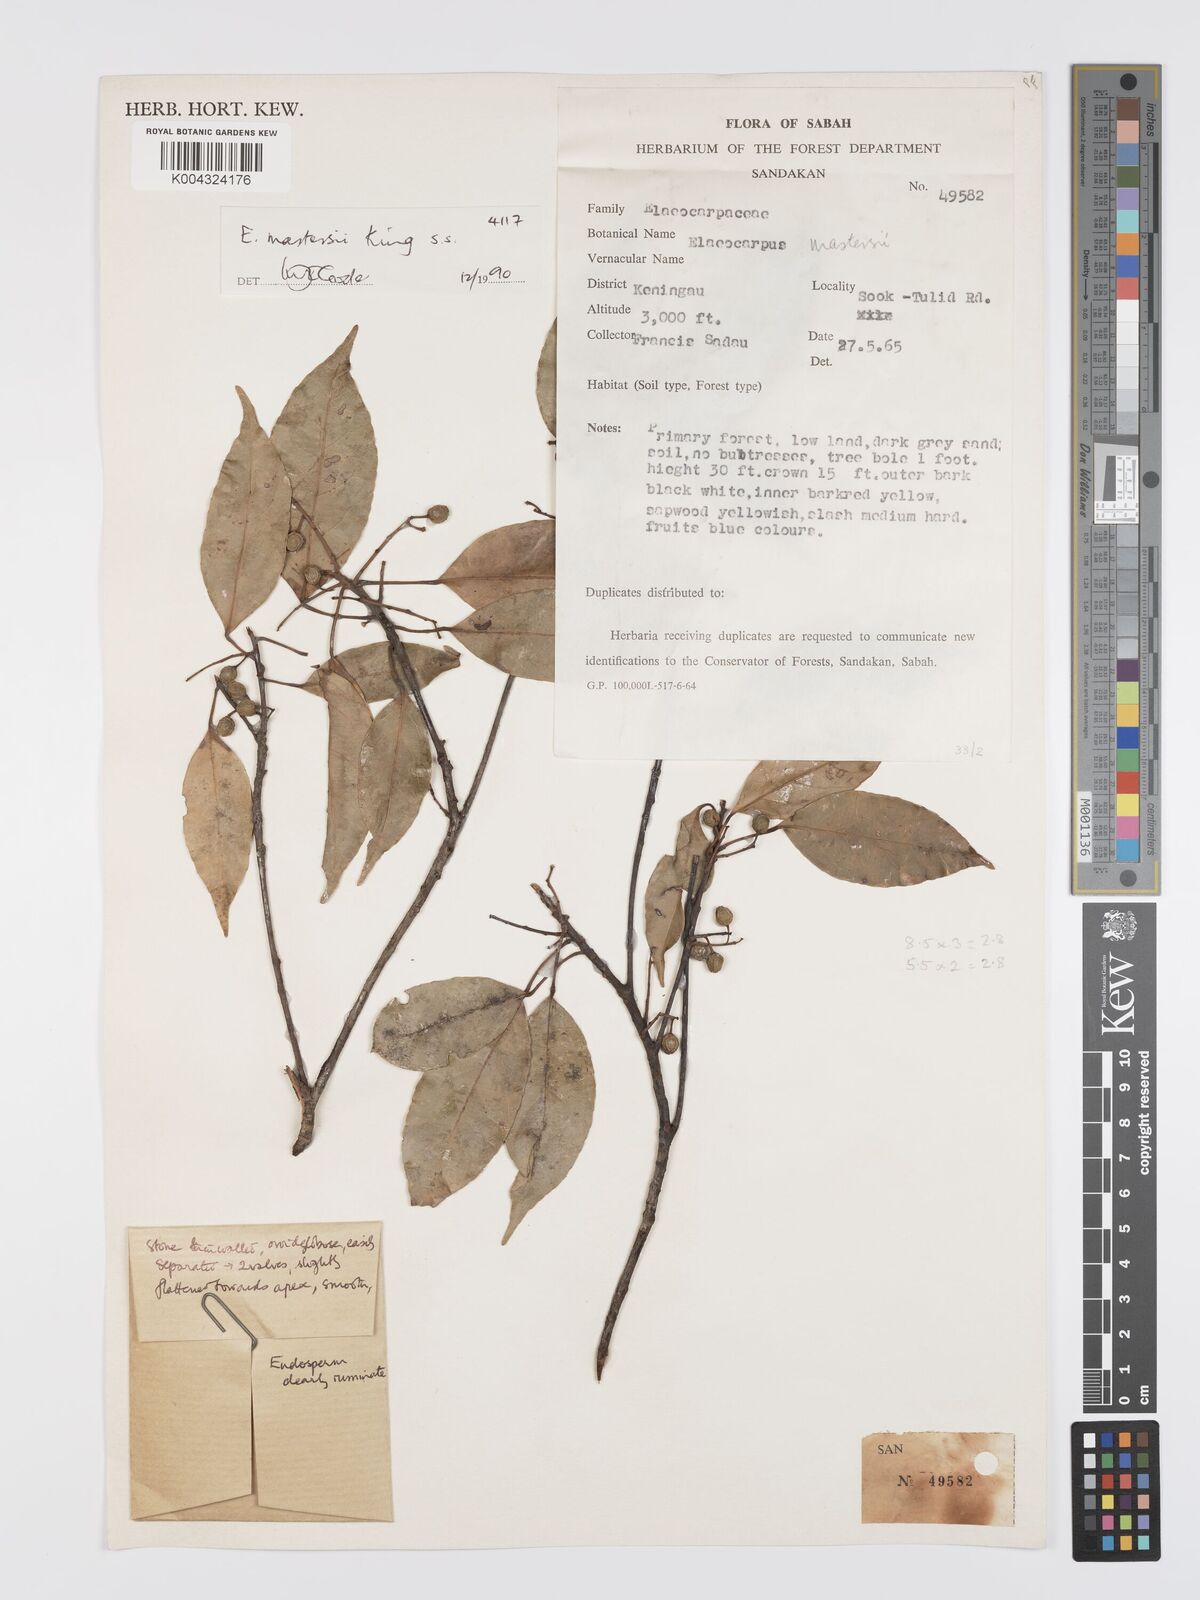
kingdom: Plantae
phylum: Tracheophyta
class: Magnoliopsida
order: Oxalidales
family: Elaeocarpaceae
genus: Elaeocarpus
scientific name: Elaeocarpus mastersii
